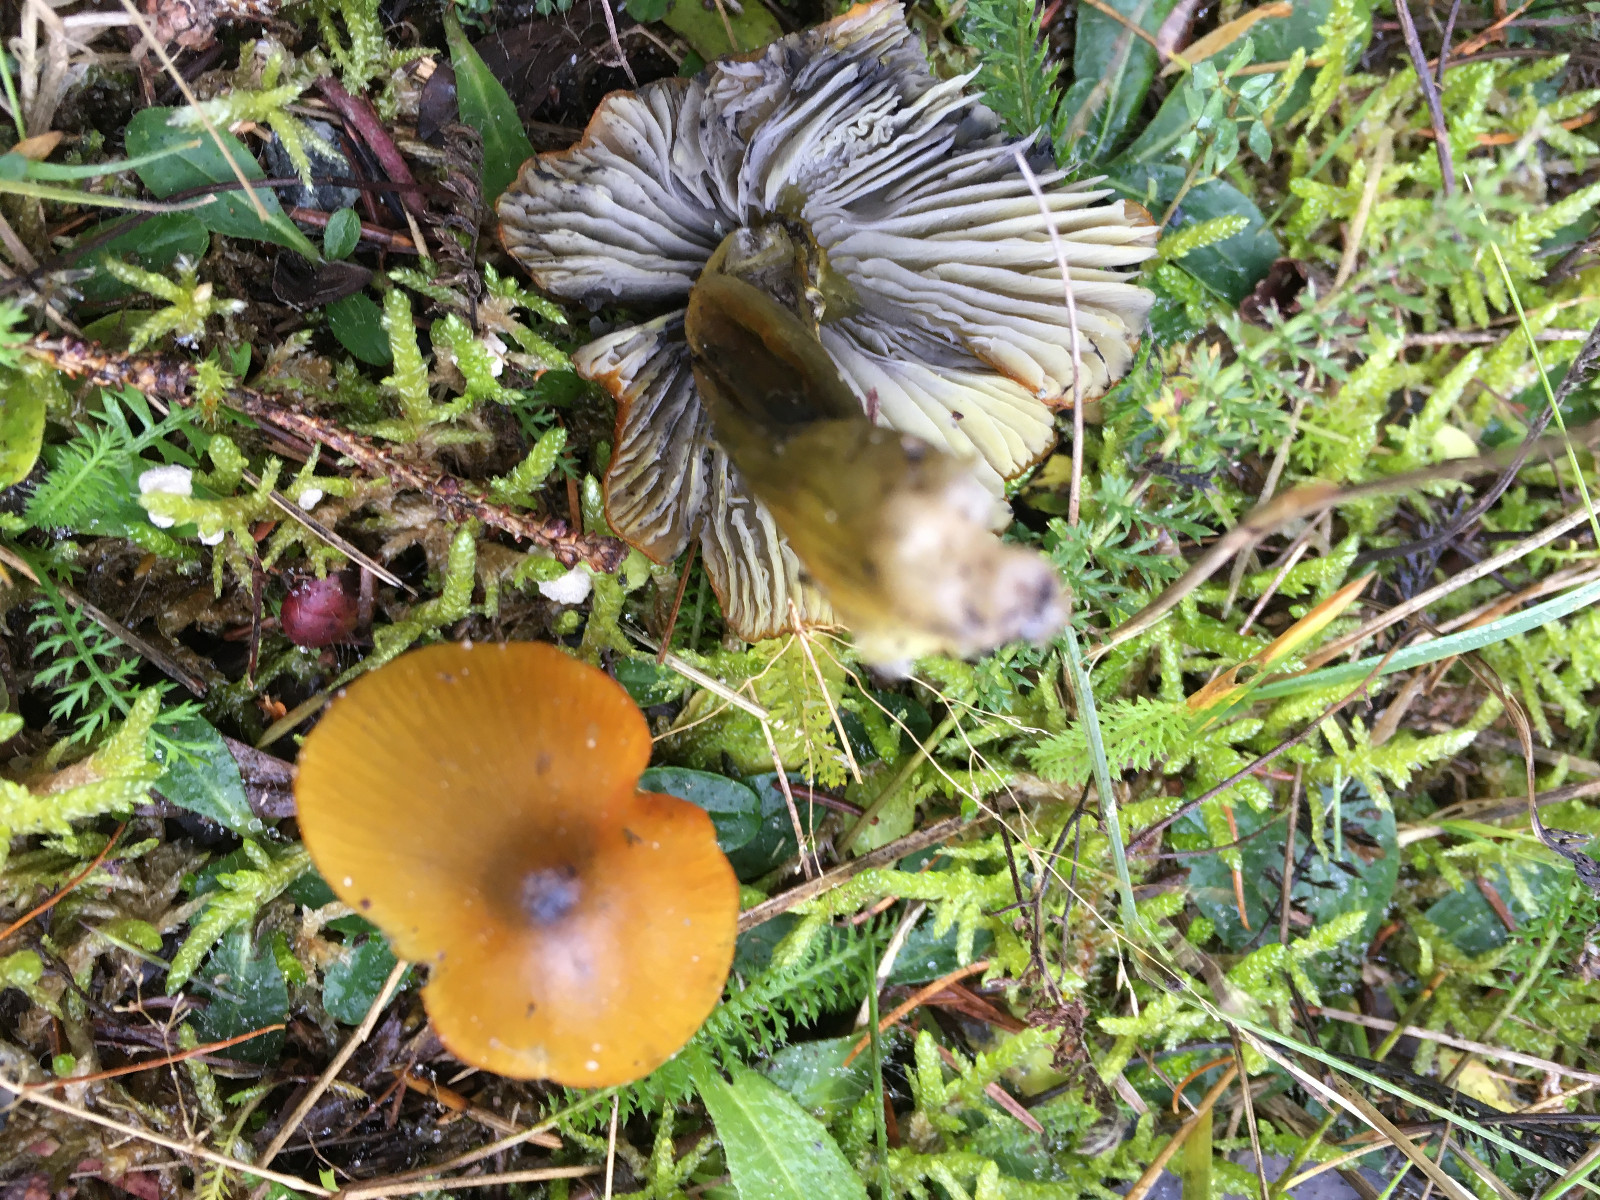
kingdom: Fungi
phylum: Basidiomycota
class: Agaricomycetes
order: Agaricales
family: Hygrophoraceae
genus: Hygrocybe
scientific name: Hygrocybe conica
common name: kegle-vokshat
